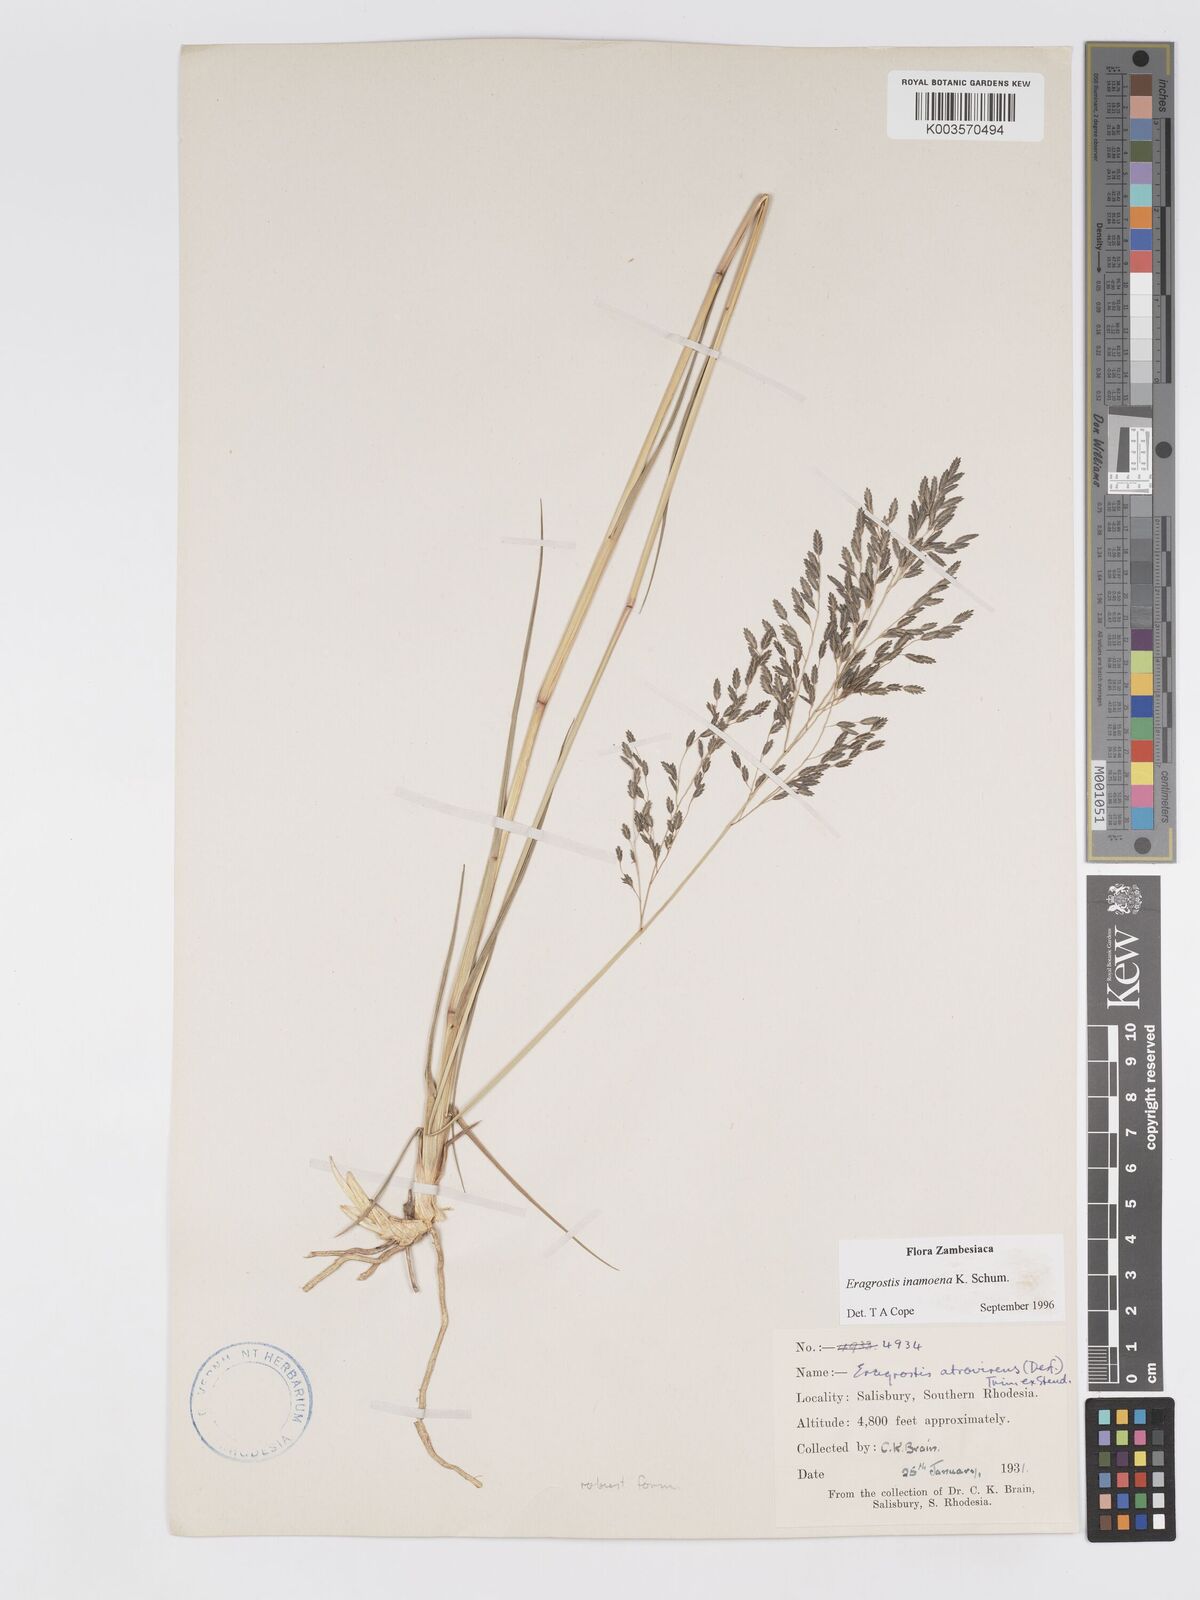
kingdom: Plantae
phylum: Tracheophyta
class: Liliopsida
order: Poales
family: Poaceae
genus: Eragrostis
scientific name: Eragrostis inamoena
